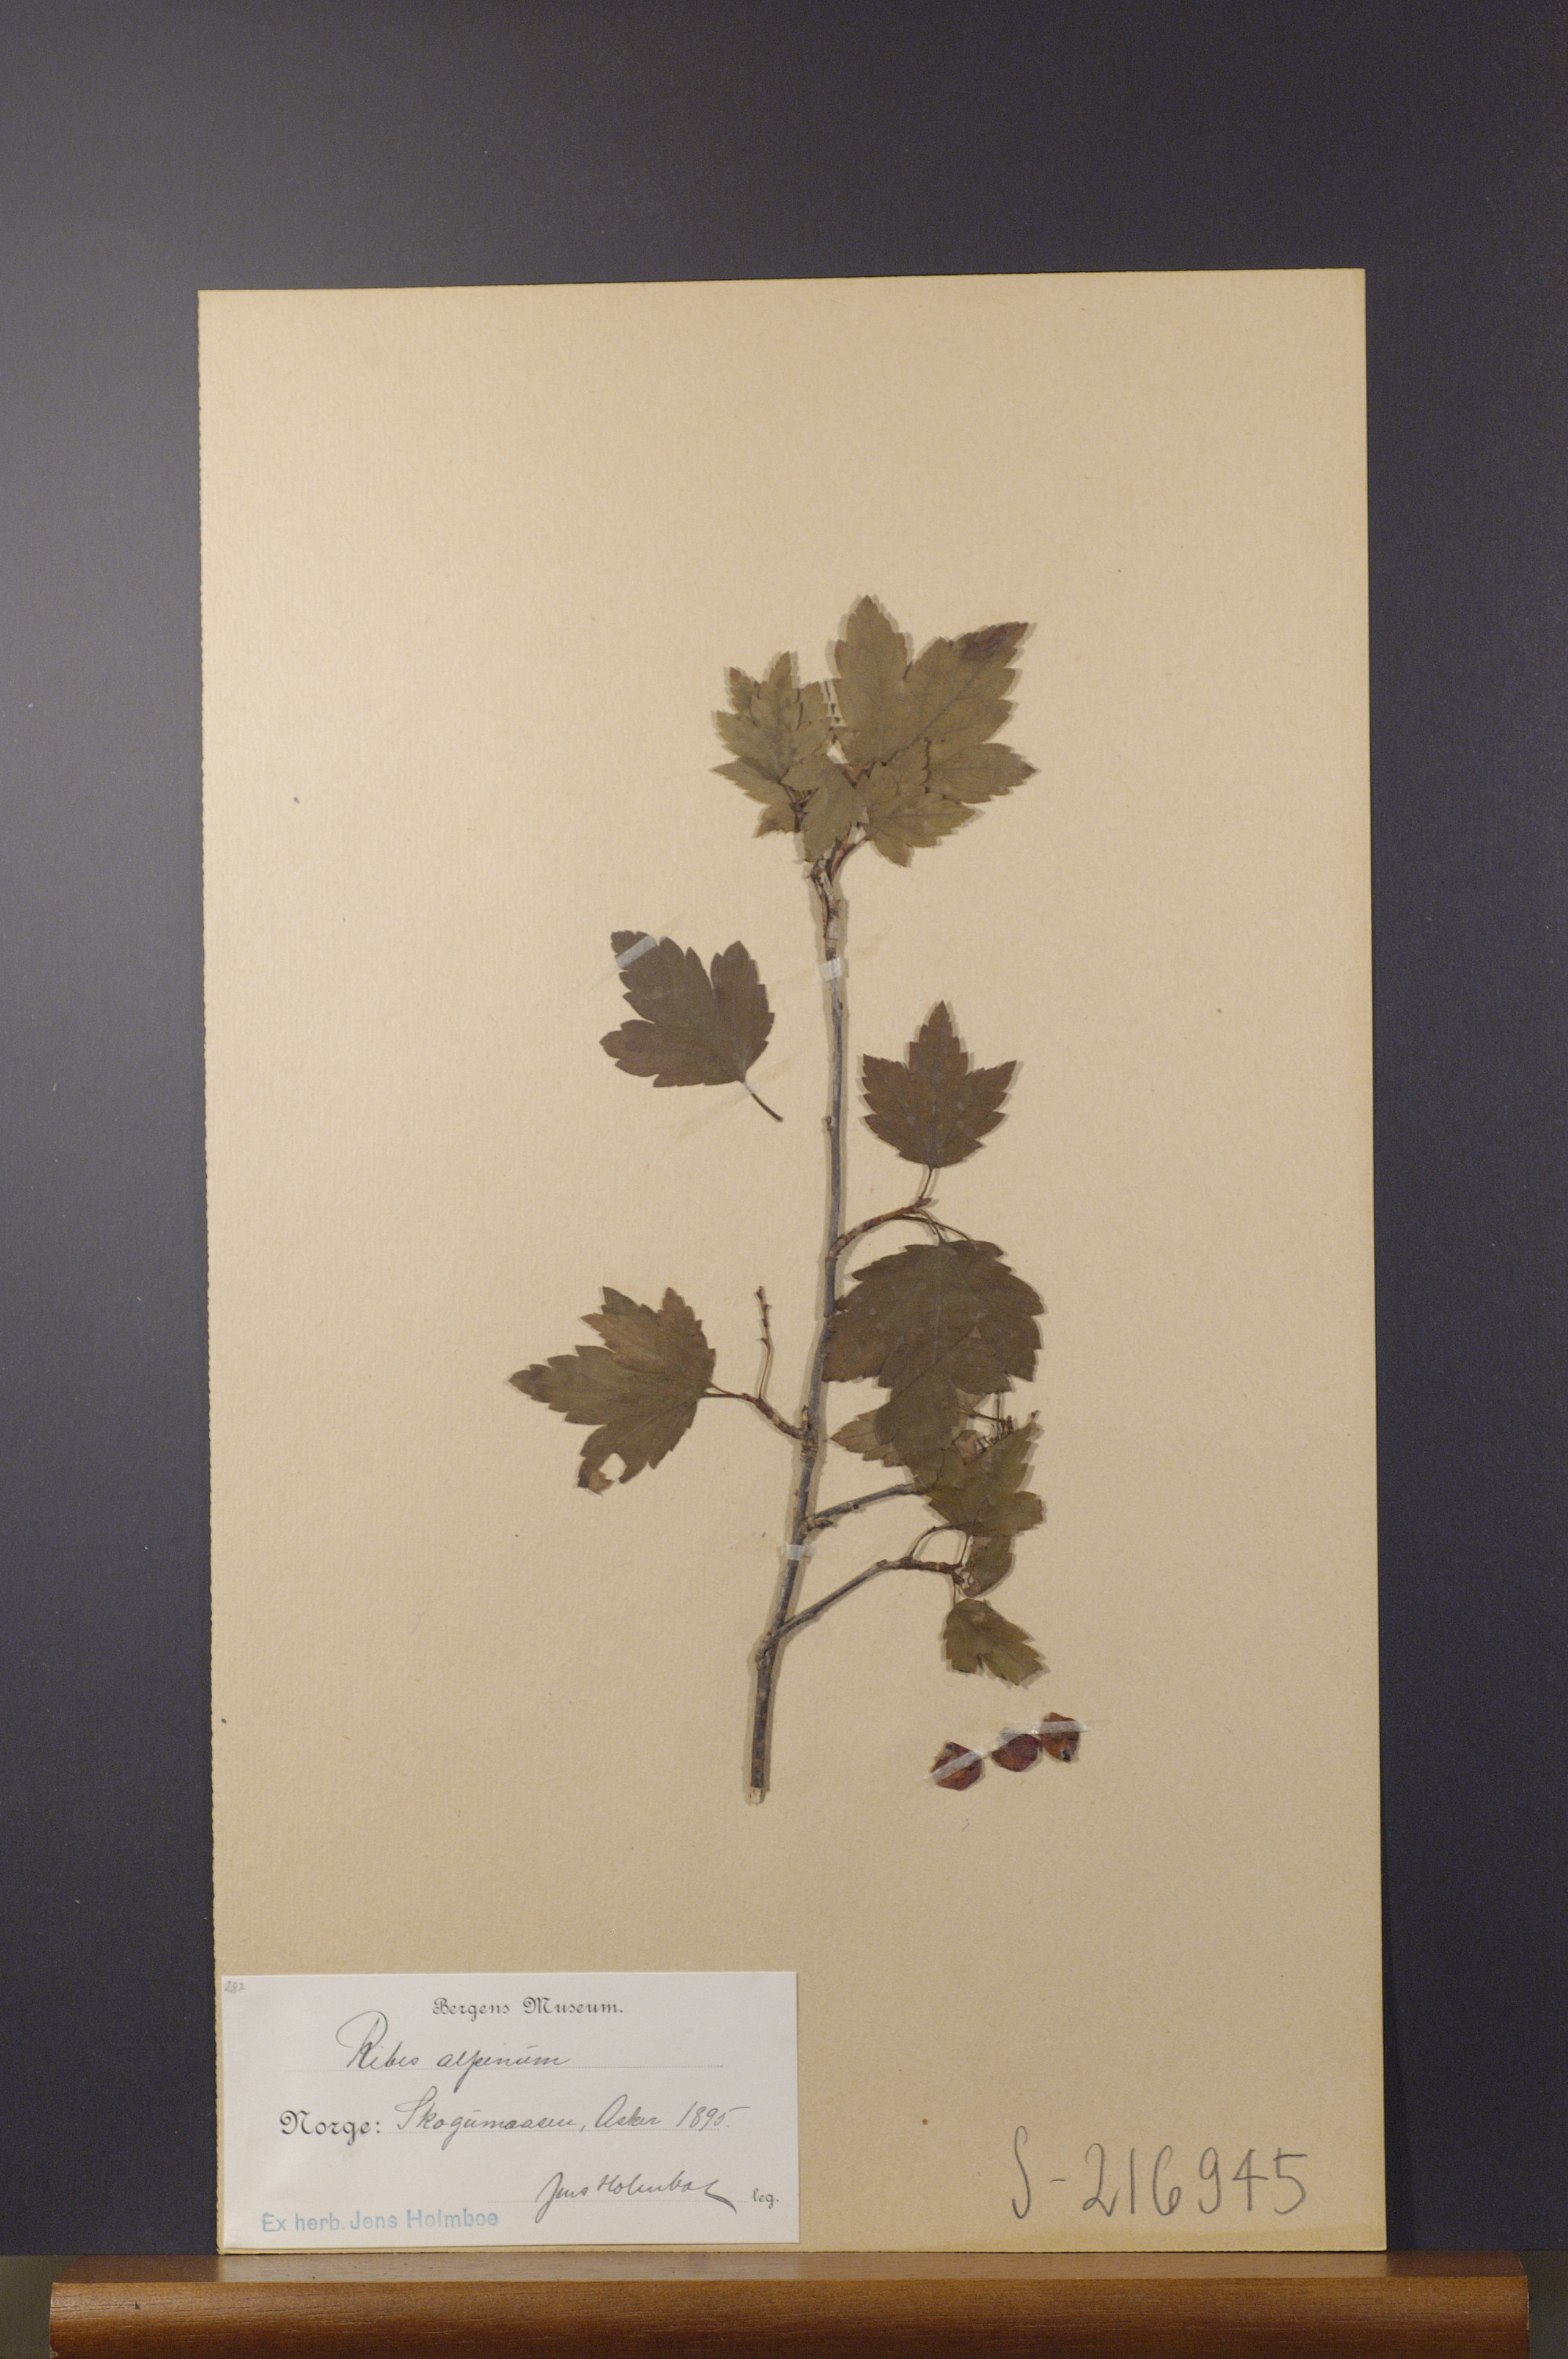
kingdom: Plantae
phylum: Tracheophyta
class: Magnoliopsida
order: Saxifragales
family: Grossulariaceae
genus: Ribes
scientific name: Ribes alpinum
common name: Alpine currant
